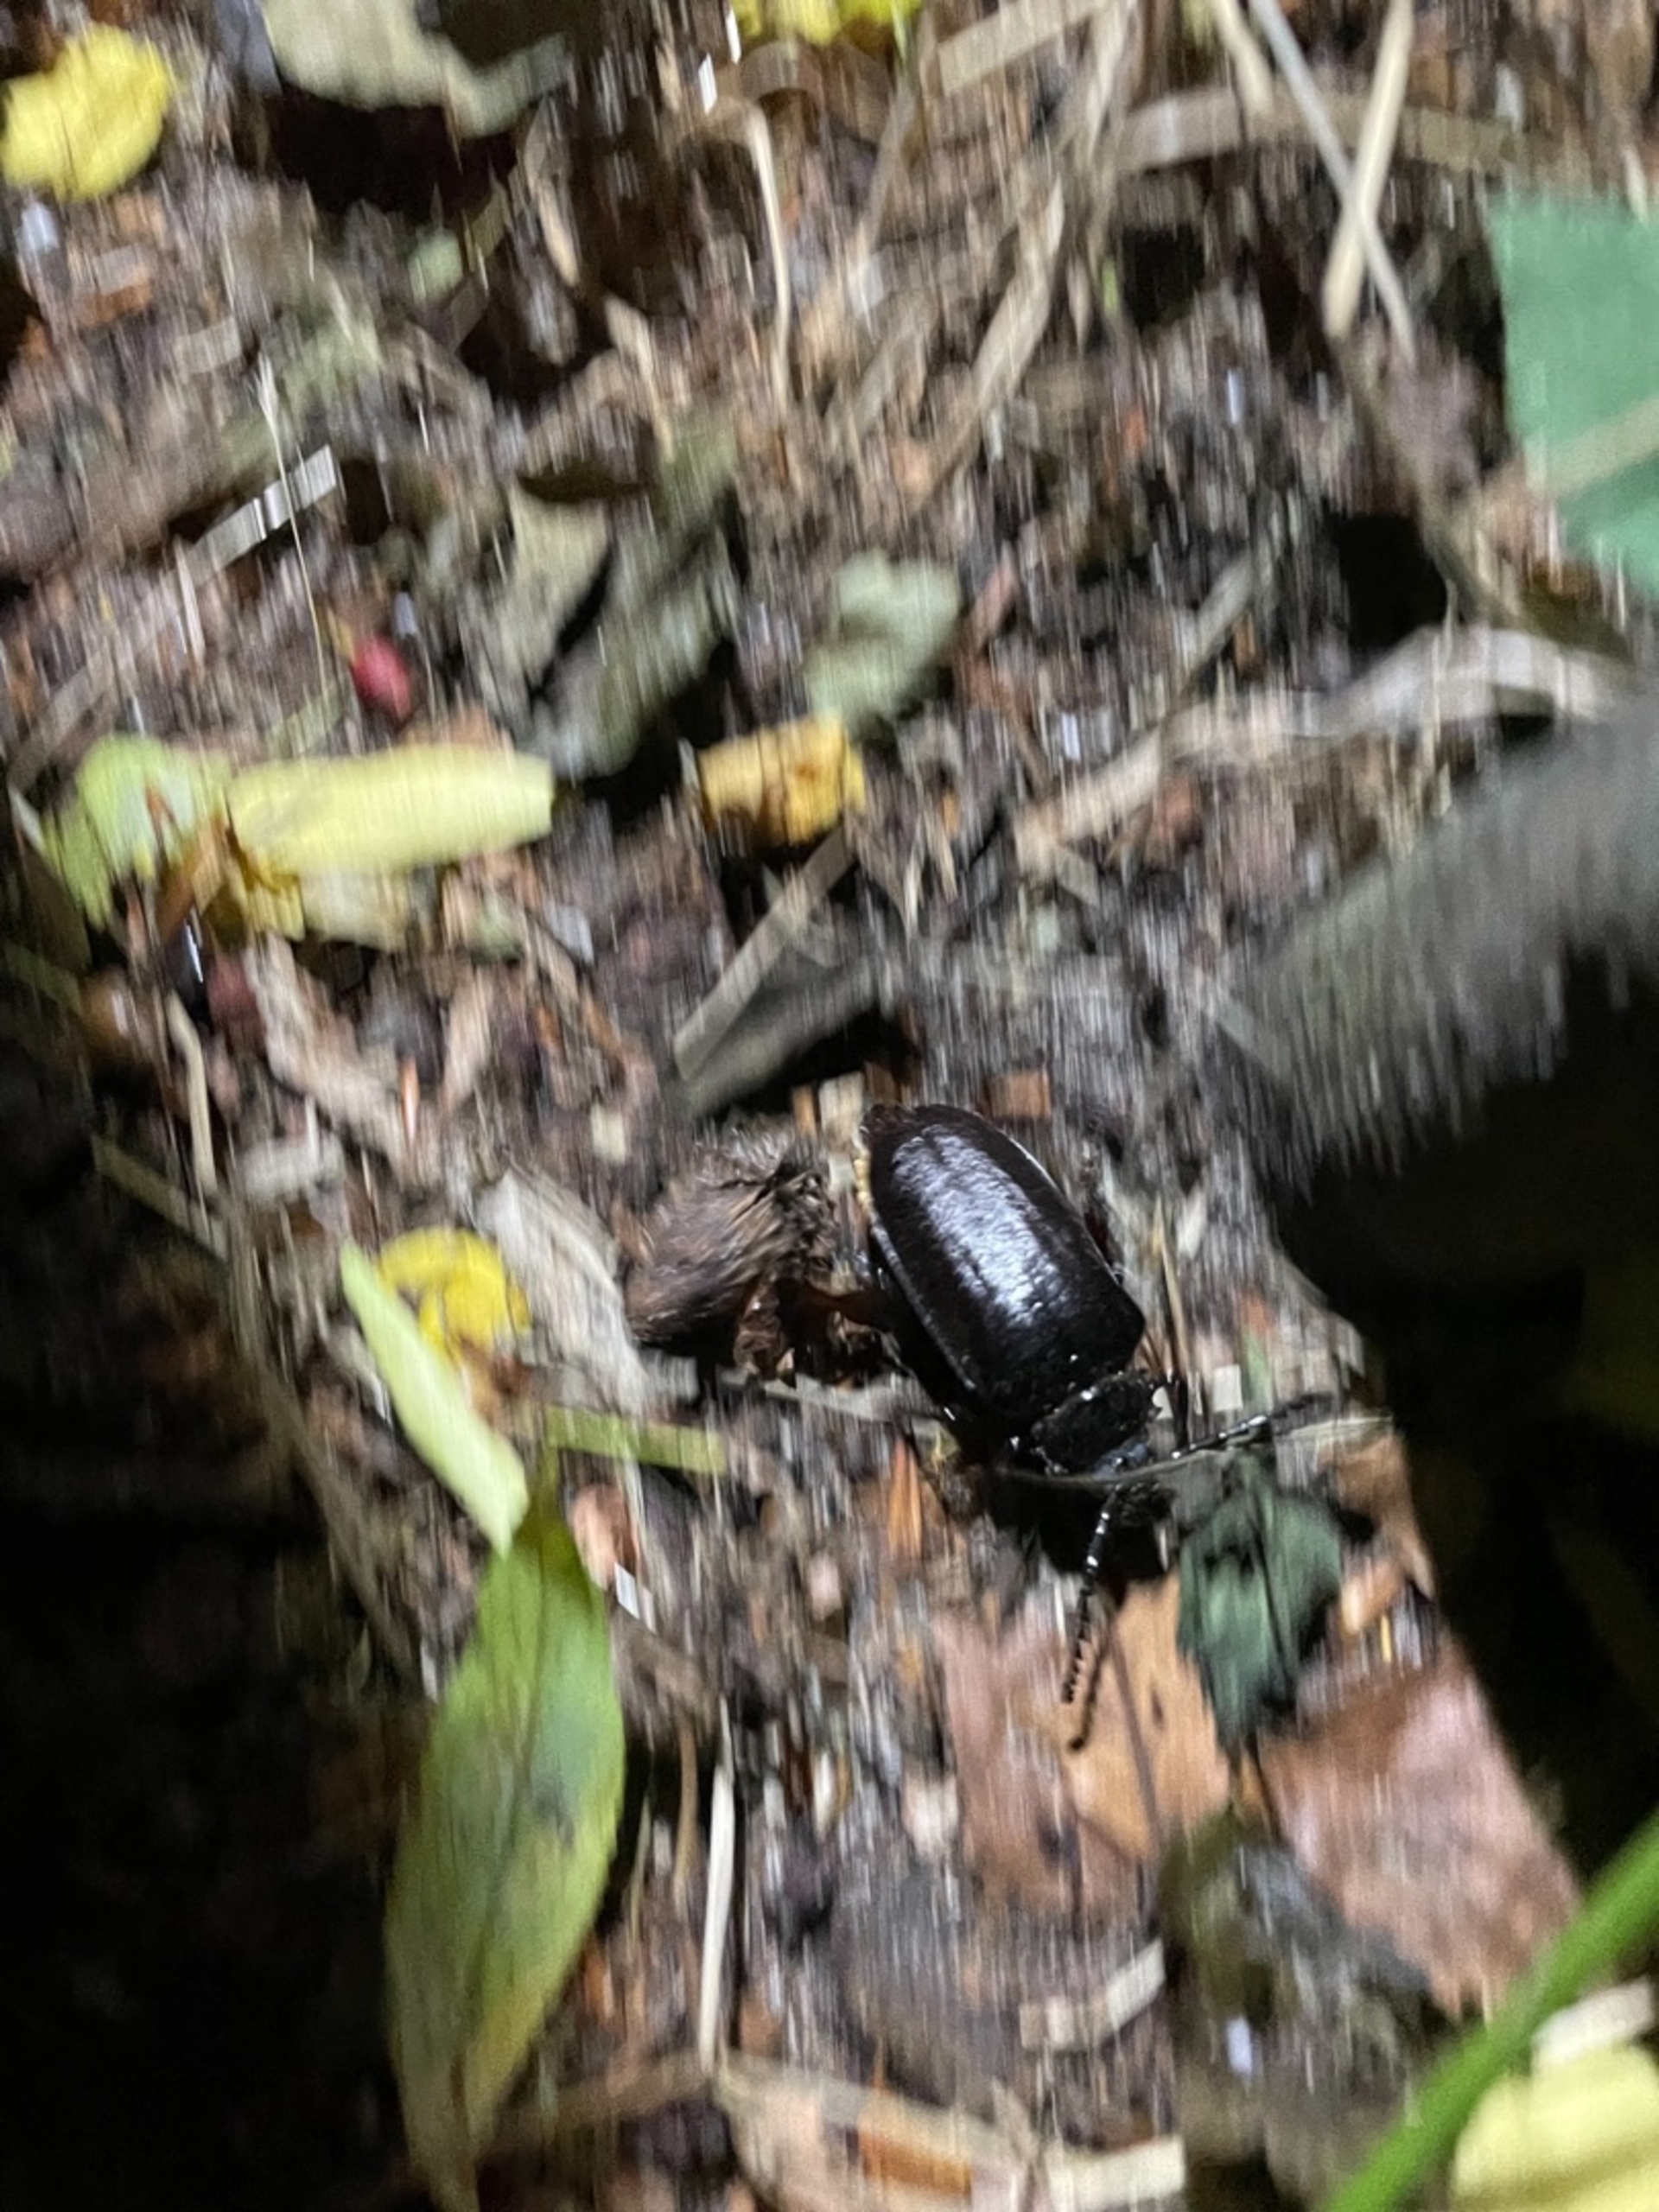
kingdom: Animalia
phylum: Arthropoda
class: Insecta
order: Coleoptera
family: Cerambycidae
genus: Prionus
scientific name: Prionus coriarius
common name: Garver
